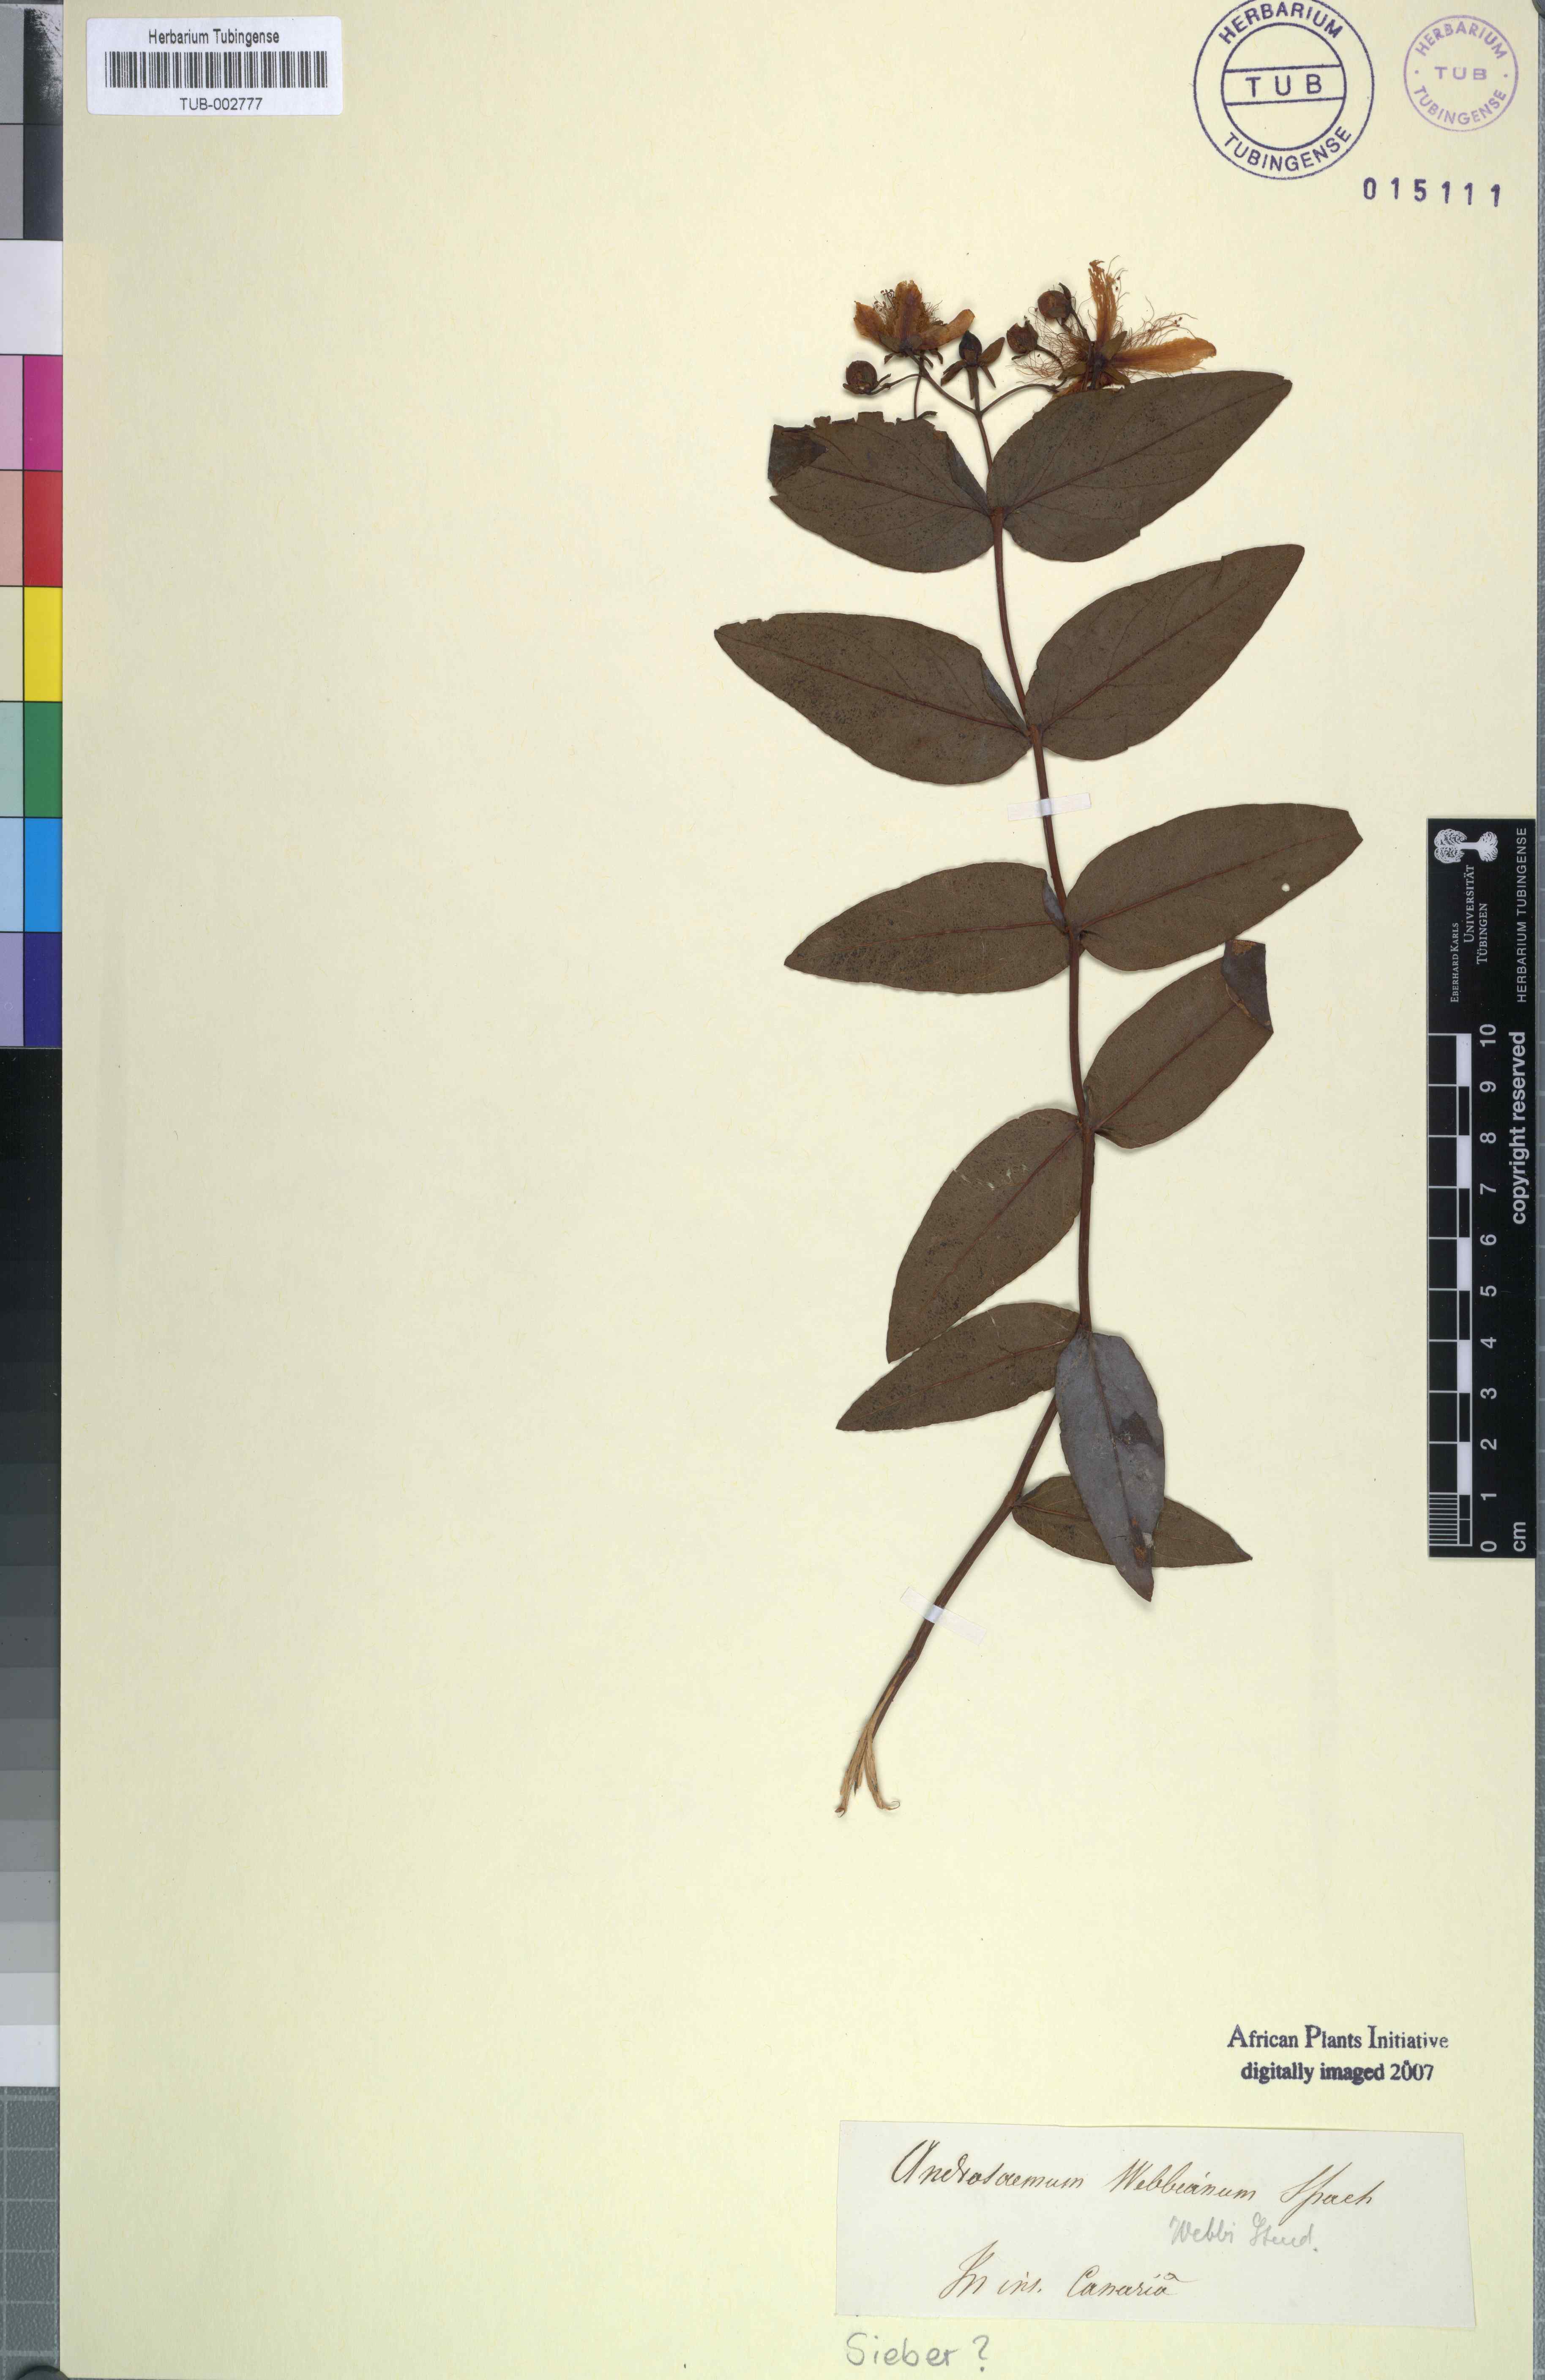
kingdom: Plantae
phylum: Tracheophyta
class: Magnoliopsida
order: Malpighiales
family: Hypericaceae
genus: Hypericum
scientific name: Hypericum calycinum
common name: Rose-of-sharon
